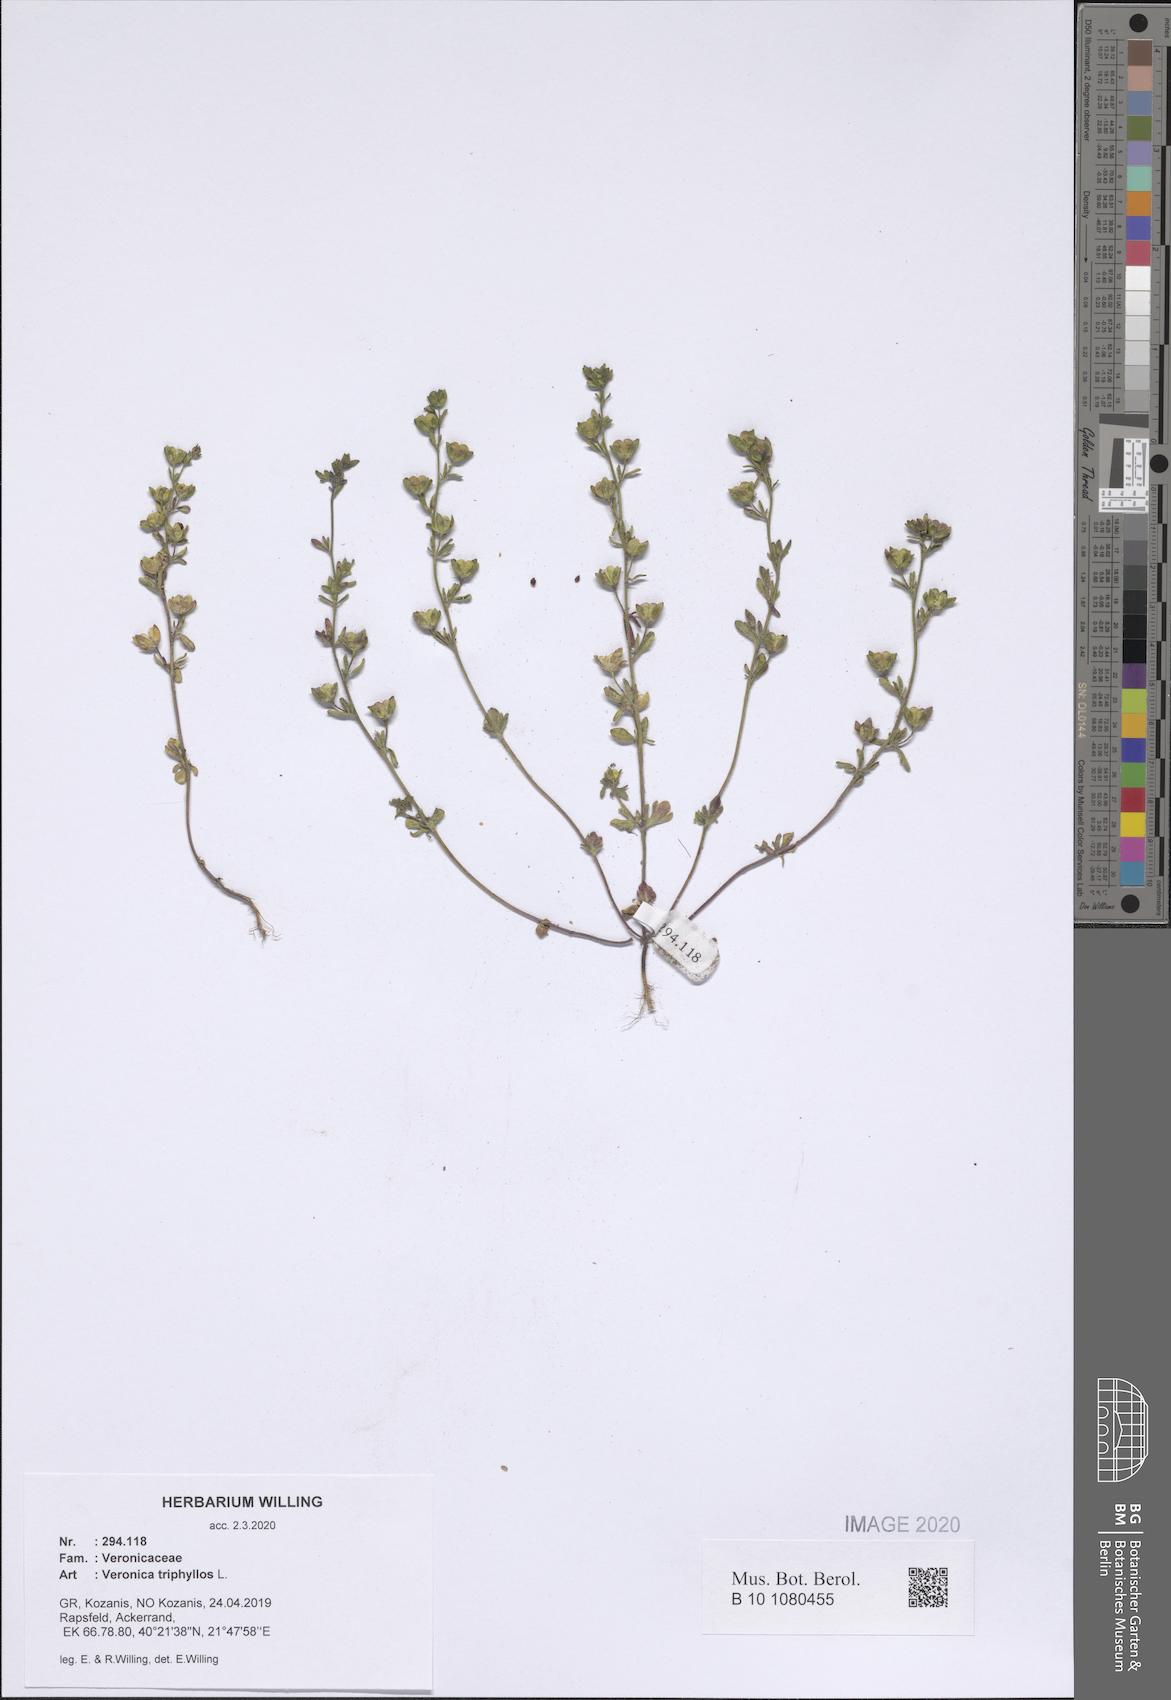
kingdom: Plantae
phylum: Tracheophyta
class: Magnoliopsida
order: Lamiales
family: Plantaginaceae
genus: Veronica
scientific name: Veronica triphyllos
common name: Fingered speedwell
